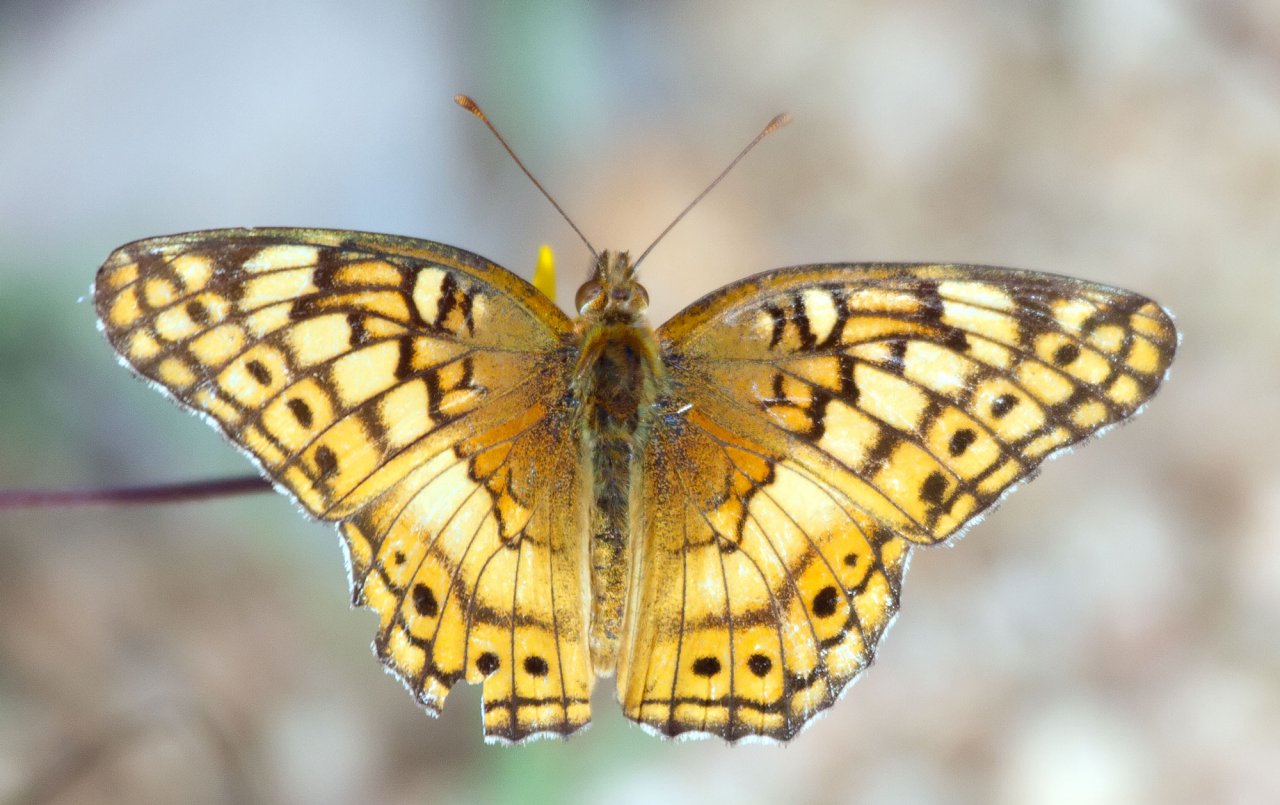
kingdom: Animalia
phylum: Arthropoda
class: Insecta
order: Lepidoptera
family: Nymphalidae
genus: Euptoieta
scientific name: Euptoieta claudia
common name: Variegated Fritillary
